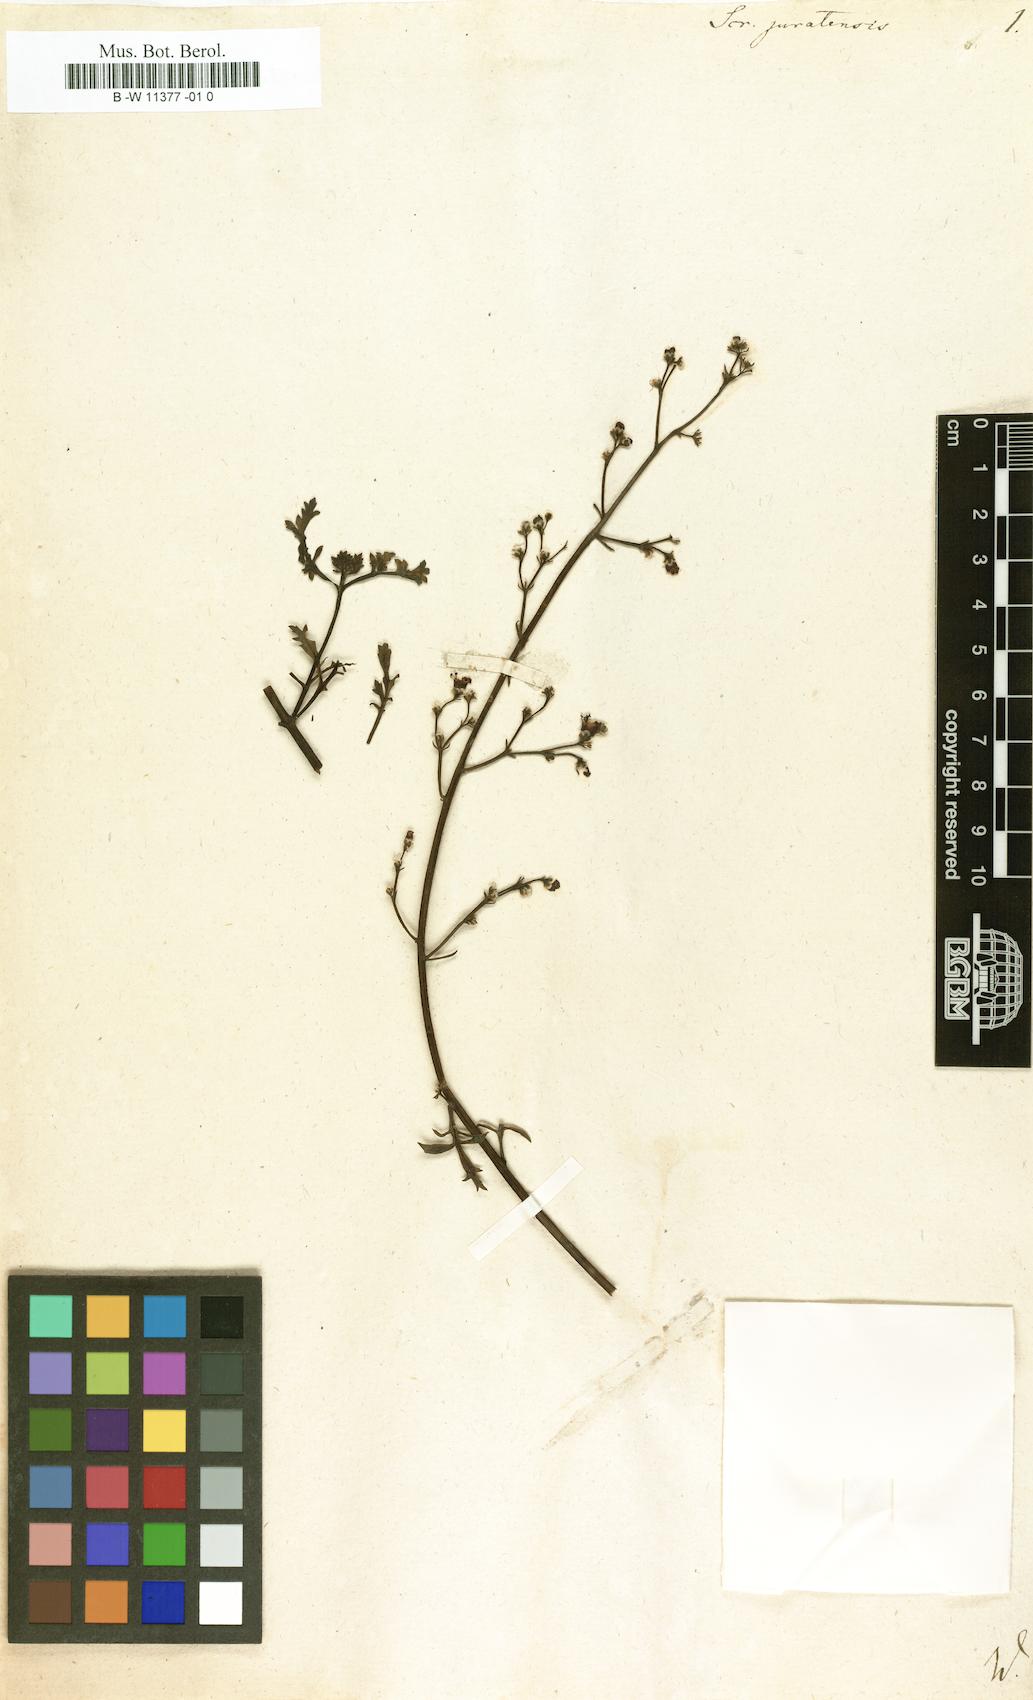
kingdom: Plantae
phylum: Tracheophyta
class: Magnoliopsida
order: Lamiales
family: Scrophulariaceae
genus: Scrophularia
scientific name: Scrophularia canina
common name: French figwort
